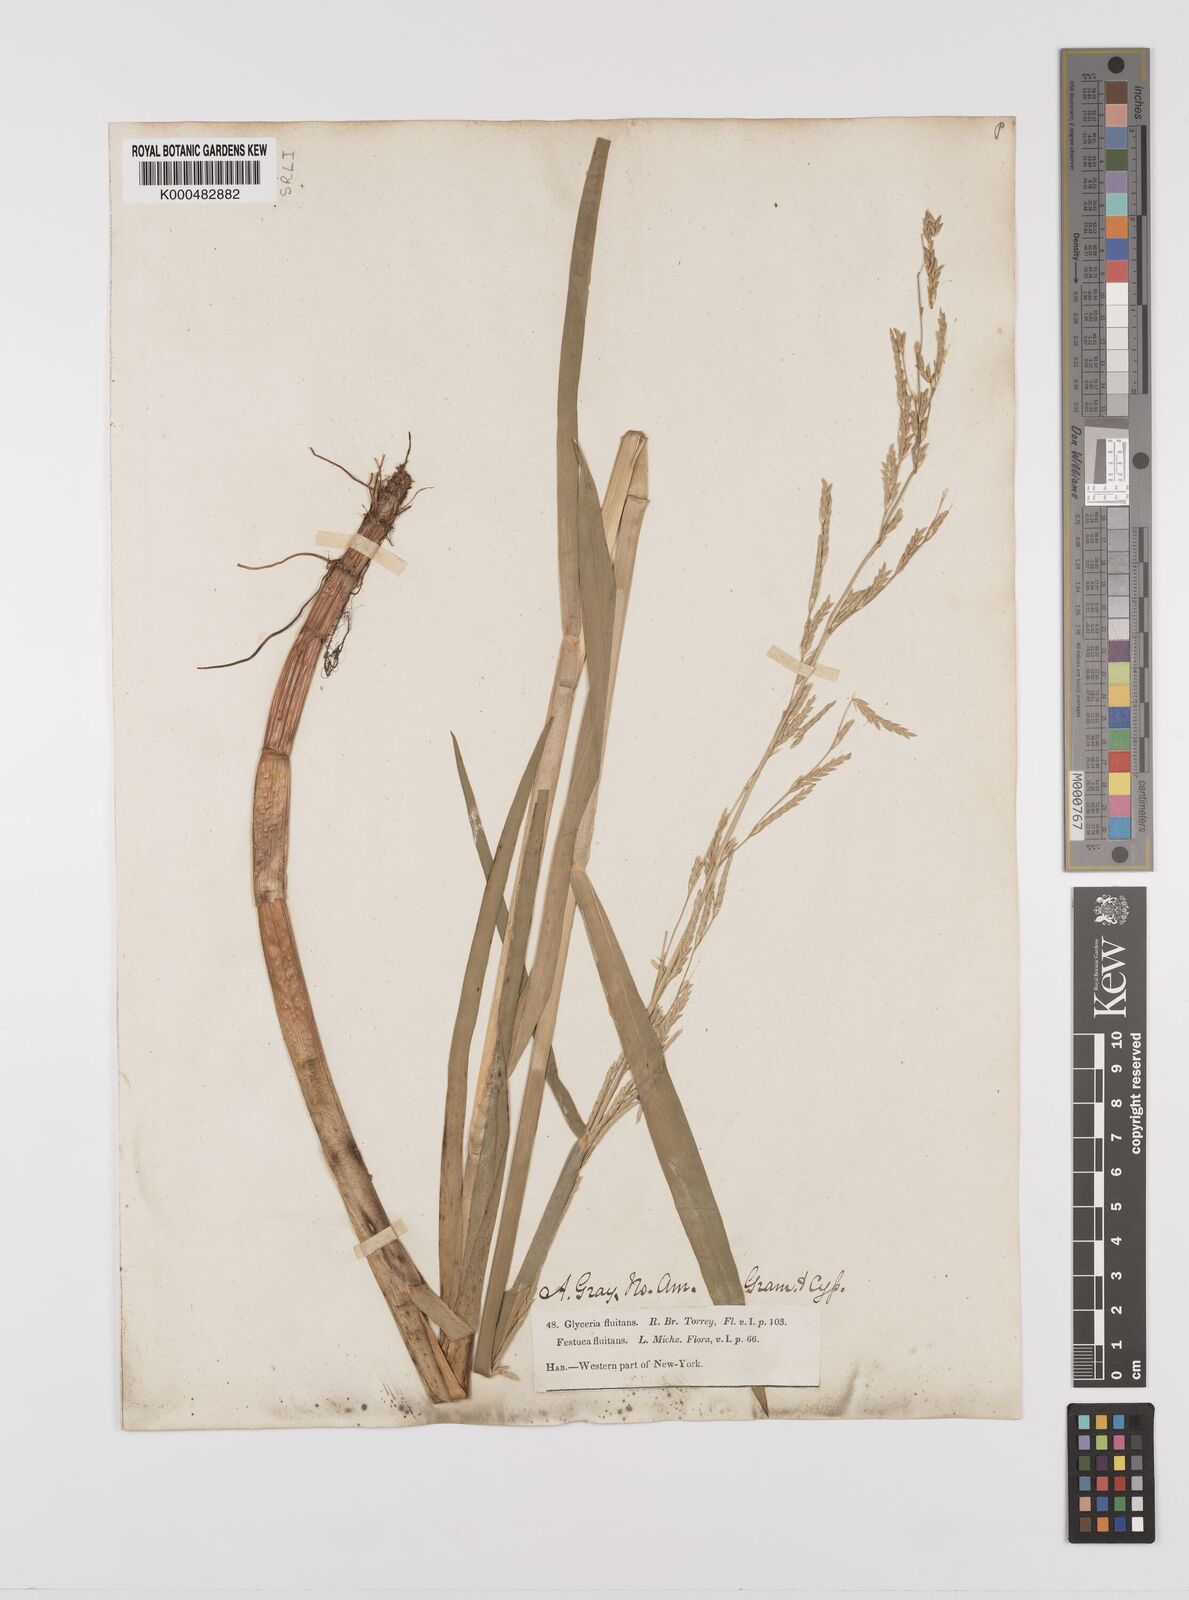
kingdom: Plantae
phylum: Tracheophyta
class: Liliopsida
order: Poales
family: Poaceae
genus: Glyceria
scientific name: Glyceria septentrionalis
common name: Eastern mannagrass
